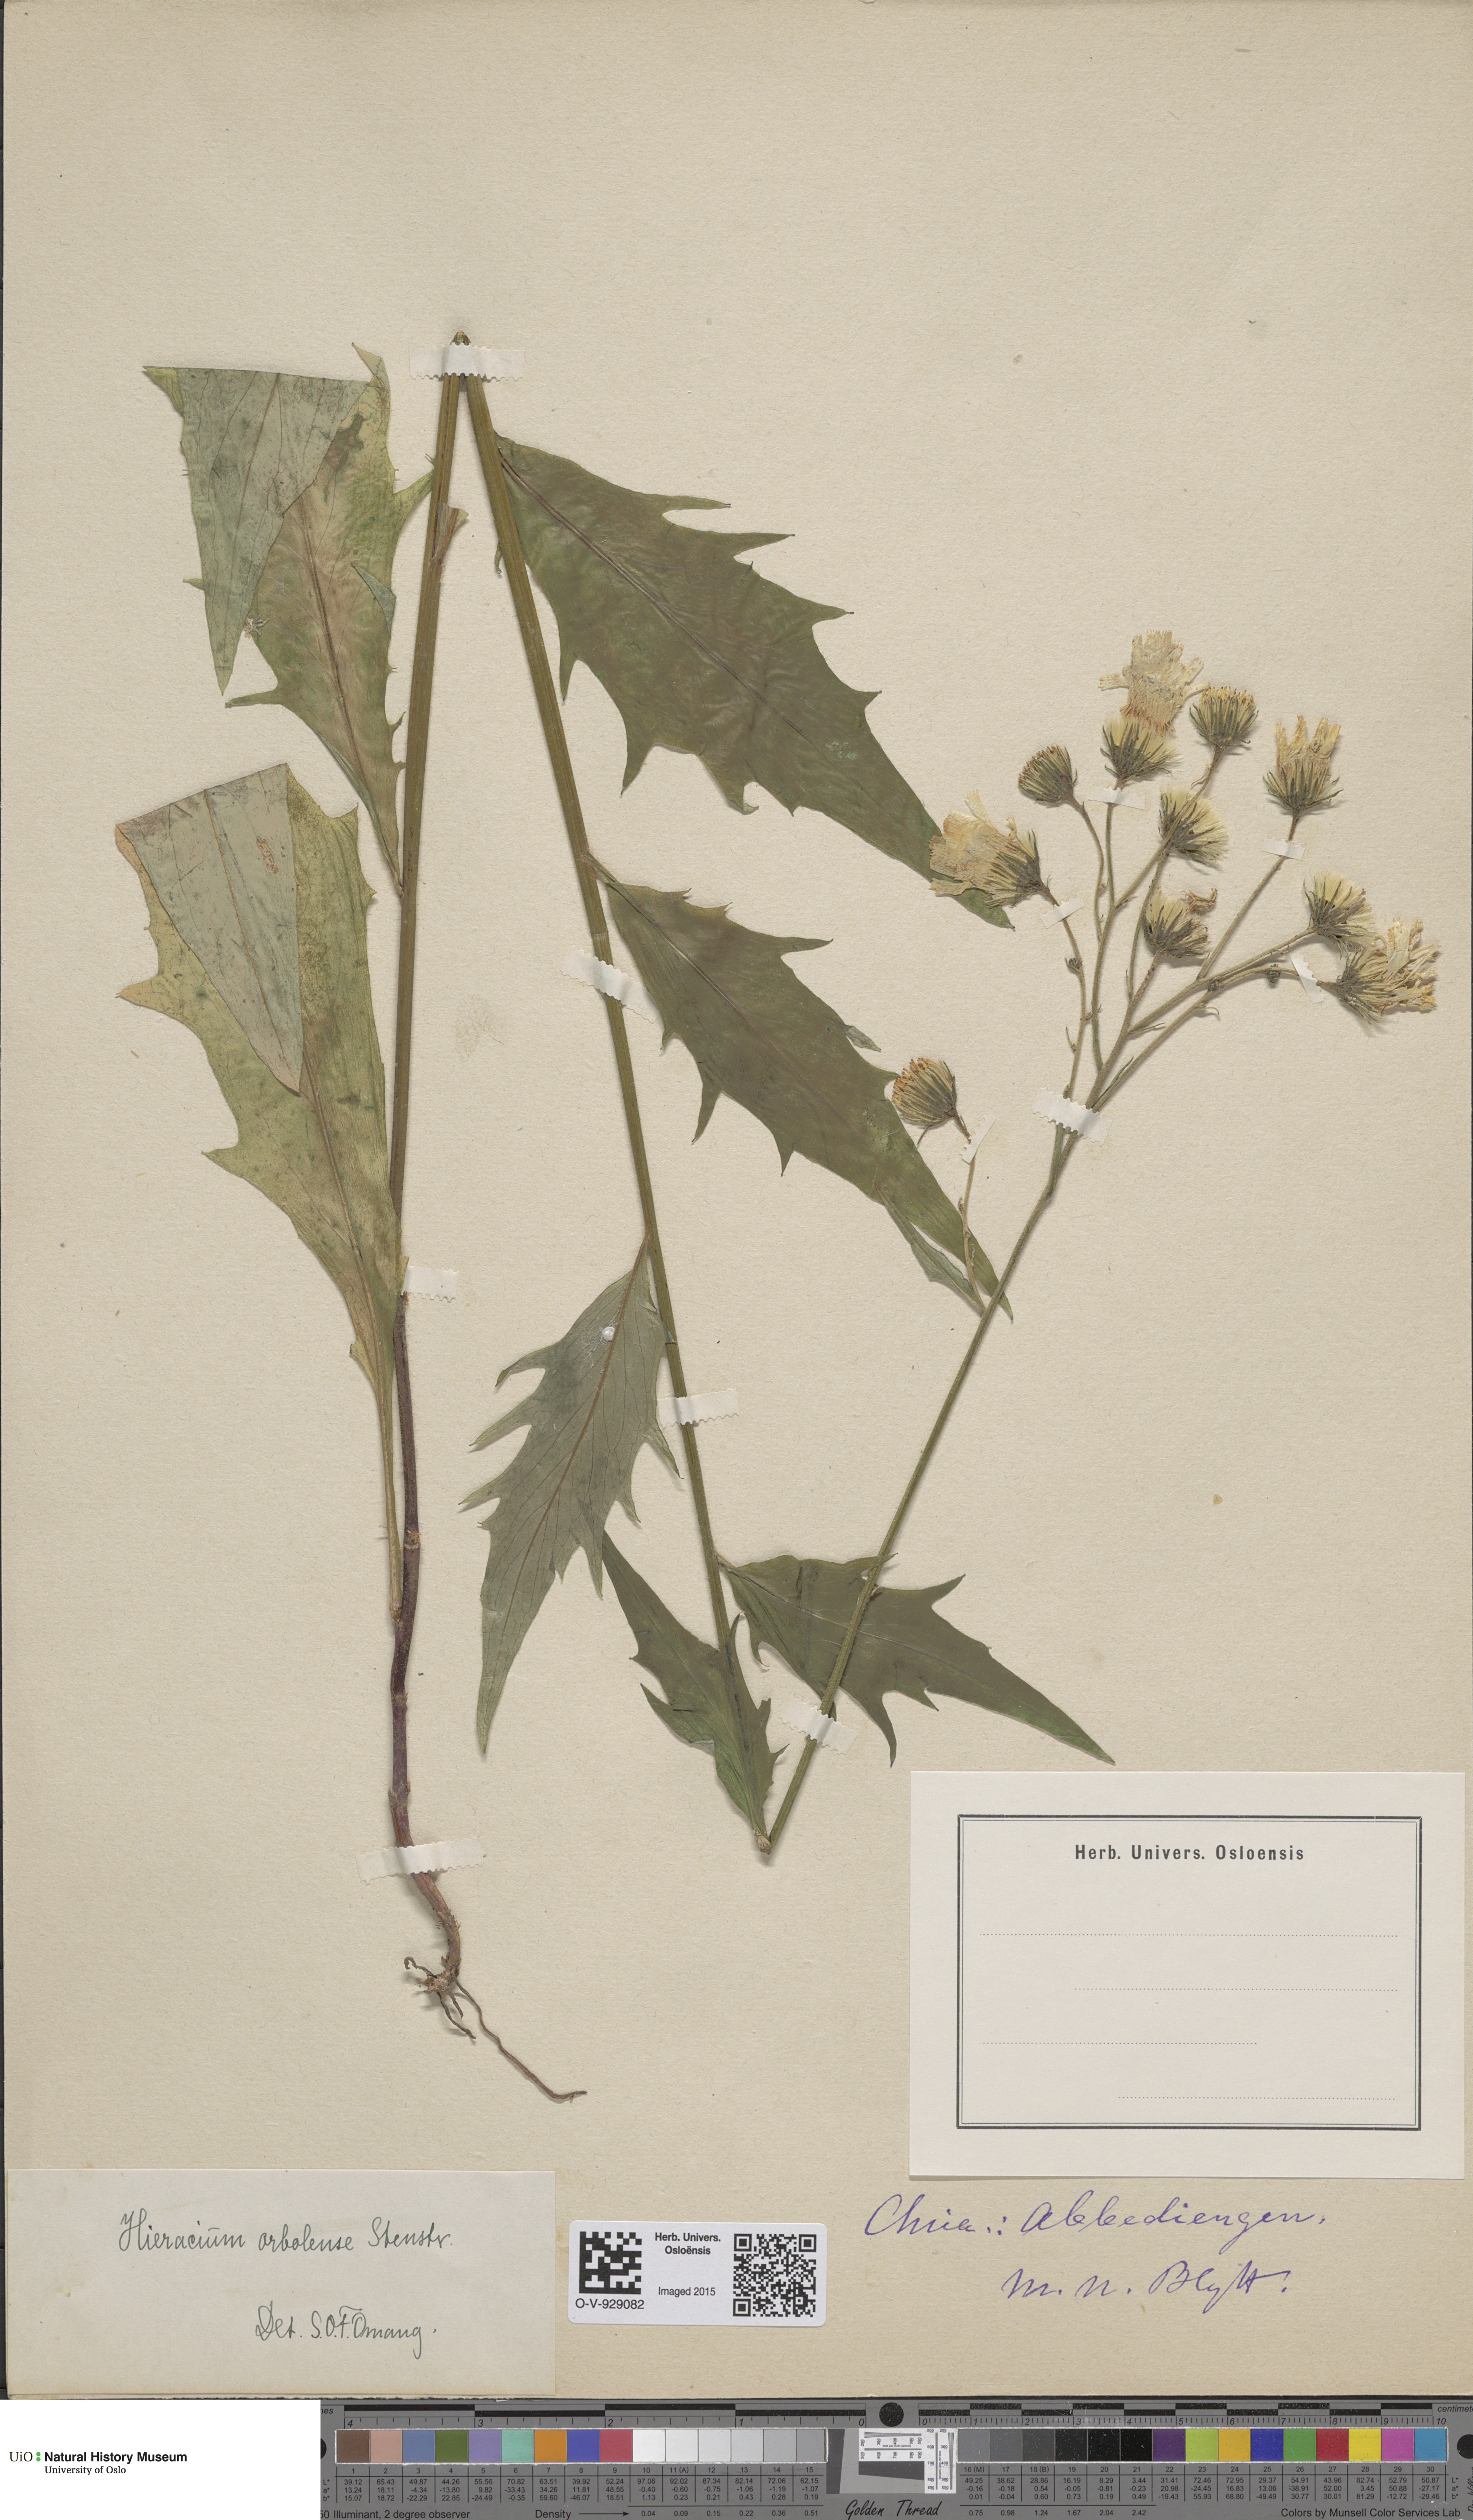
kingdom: Plantae
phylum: Tracheophyta
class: Magnoliopsida
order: Asterales
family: Asteraceae
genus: Hieracium
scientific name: Hieracium orbolense
